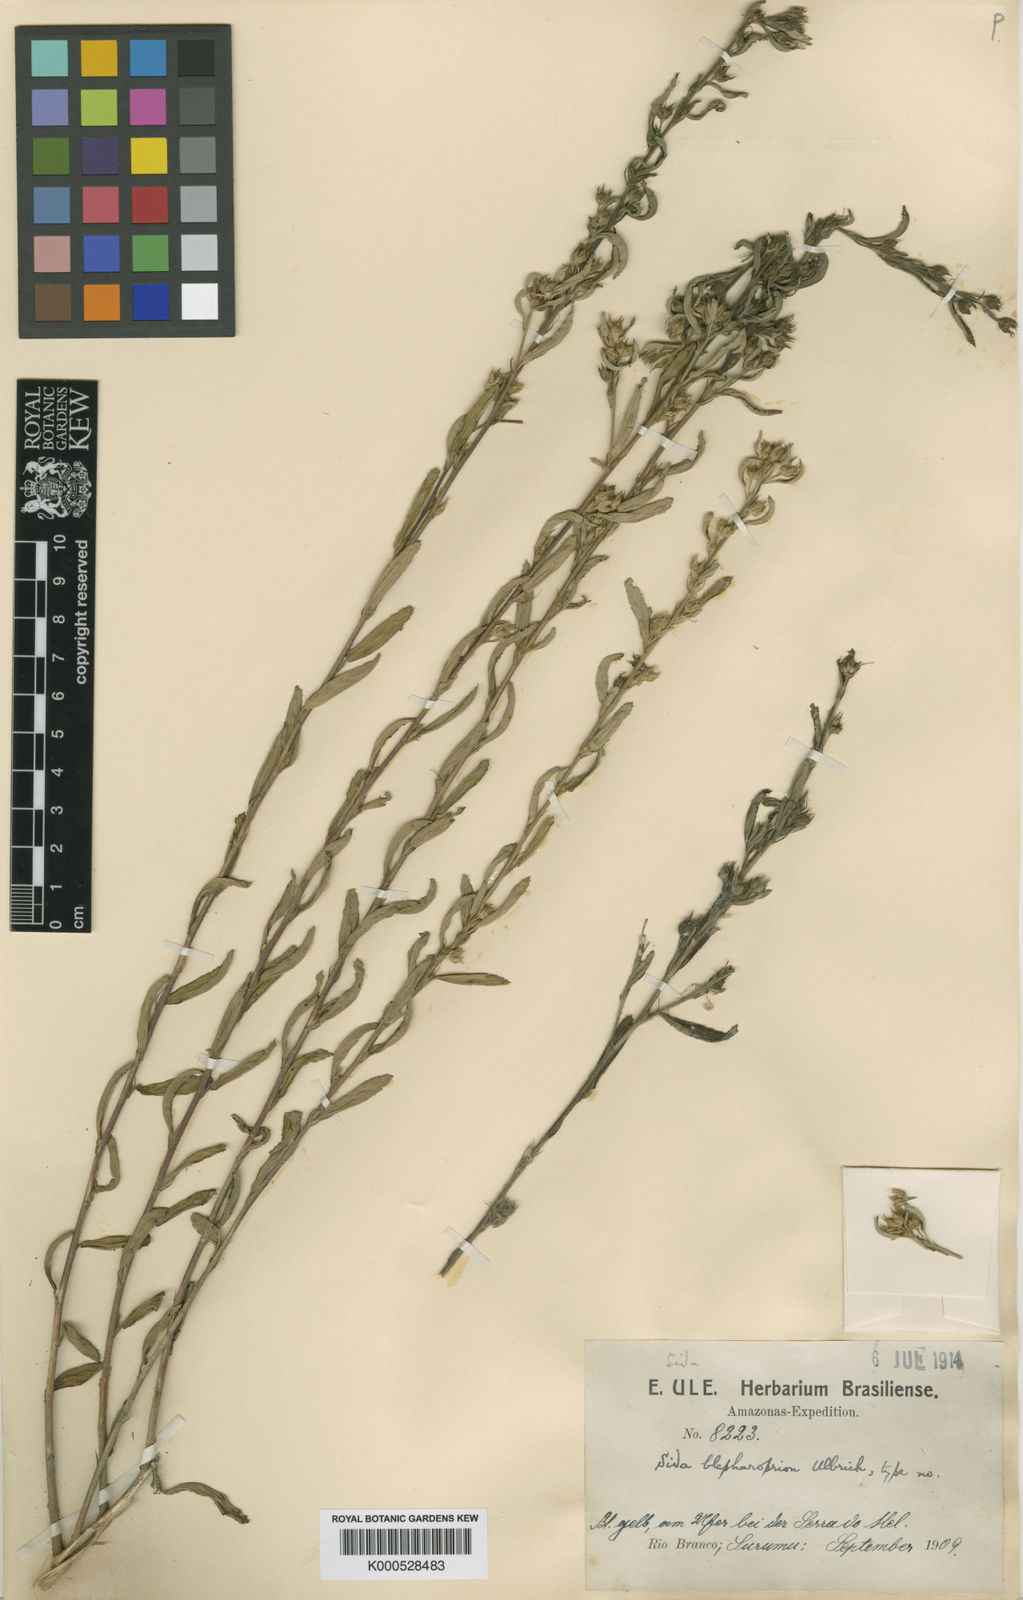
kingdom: Plantae
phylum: Tracheophyta
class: Magnoliopsida
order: Malvales
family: Malvaceae
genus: Sida
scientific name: Sida blepharoprion
